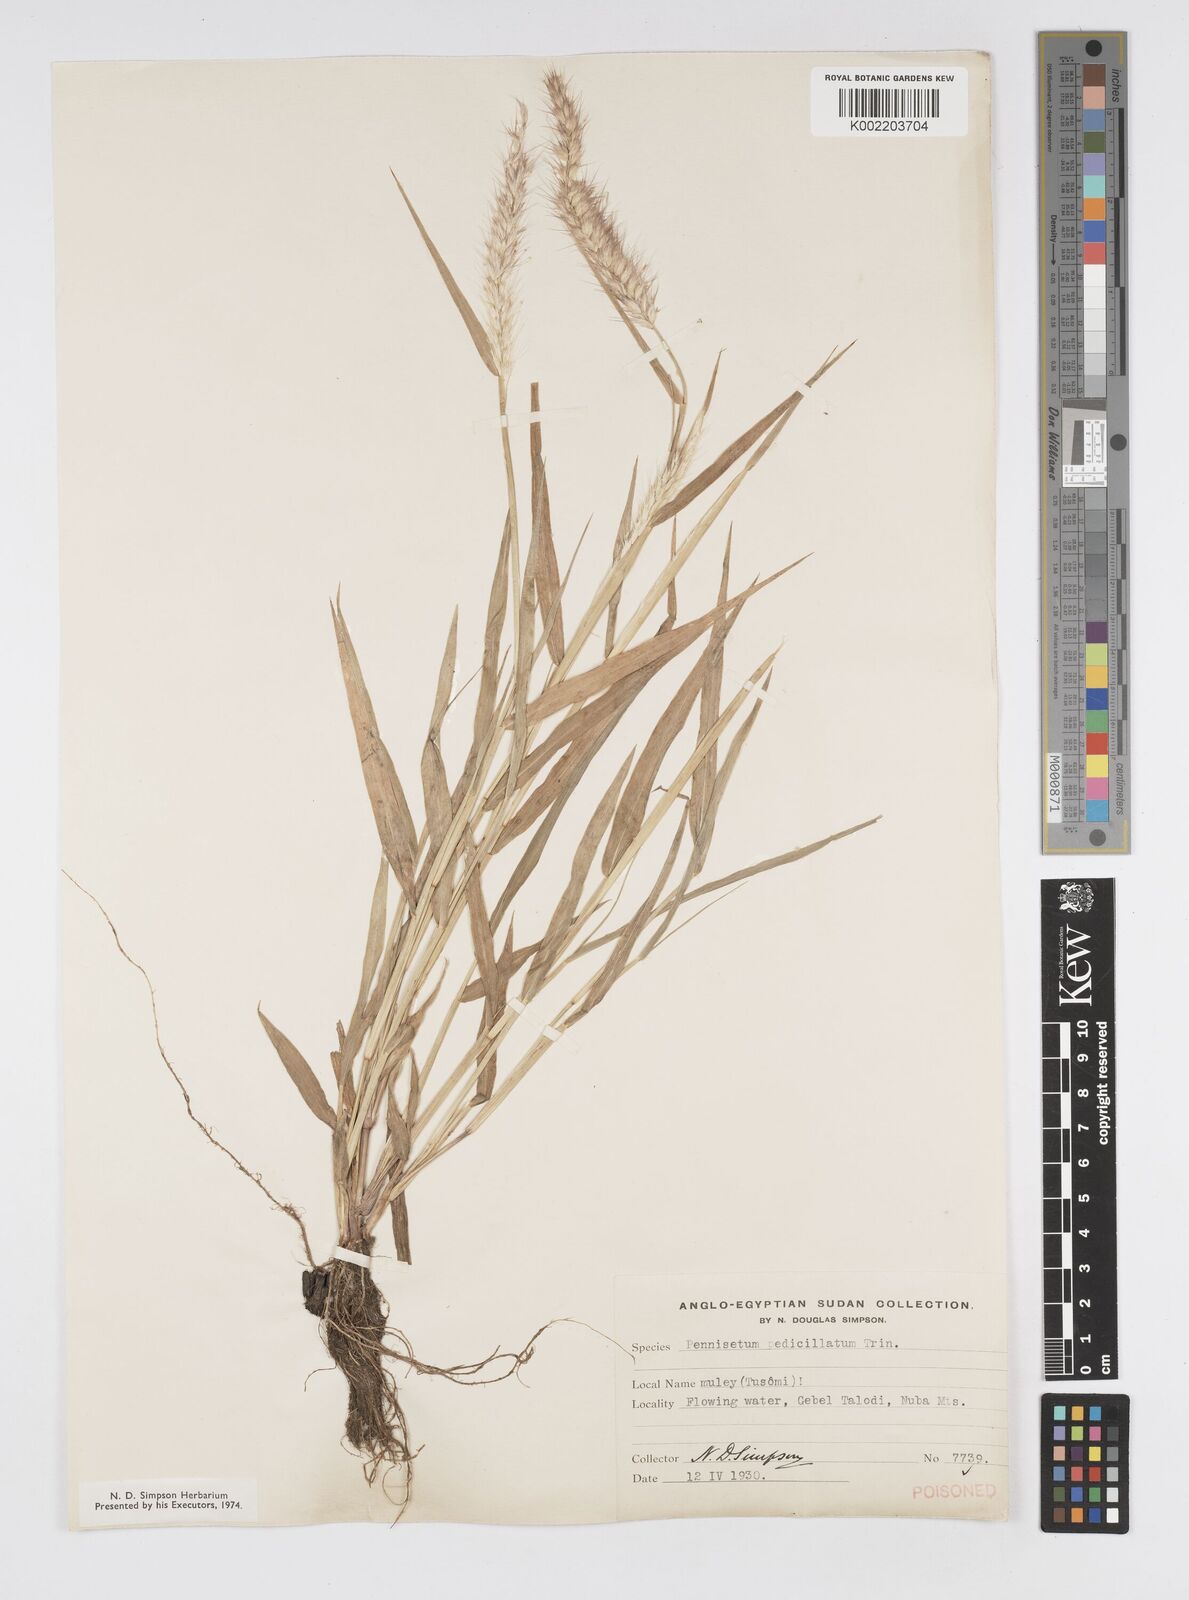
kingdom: Plantae
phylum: Tracheophyta
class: Liliopsida
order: Poales
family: Poaceae
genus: Cenchrus
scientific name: Cenchrus pedicellatus
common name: Hairy fountain grass
